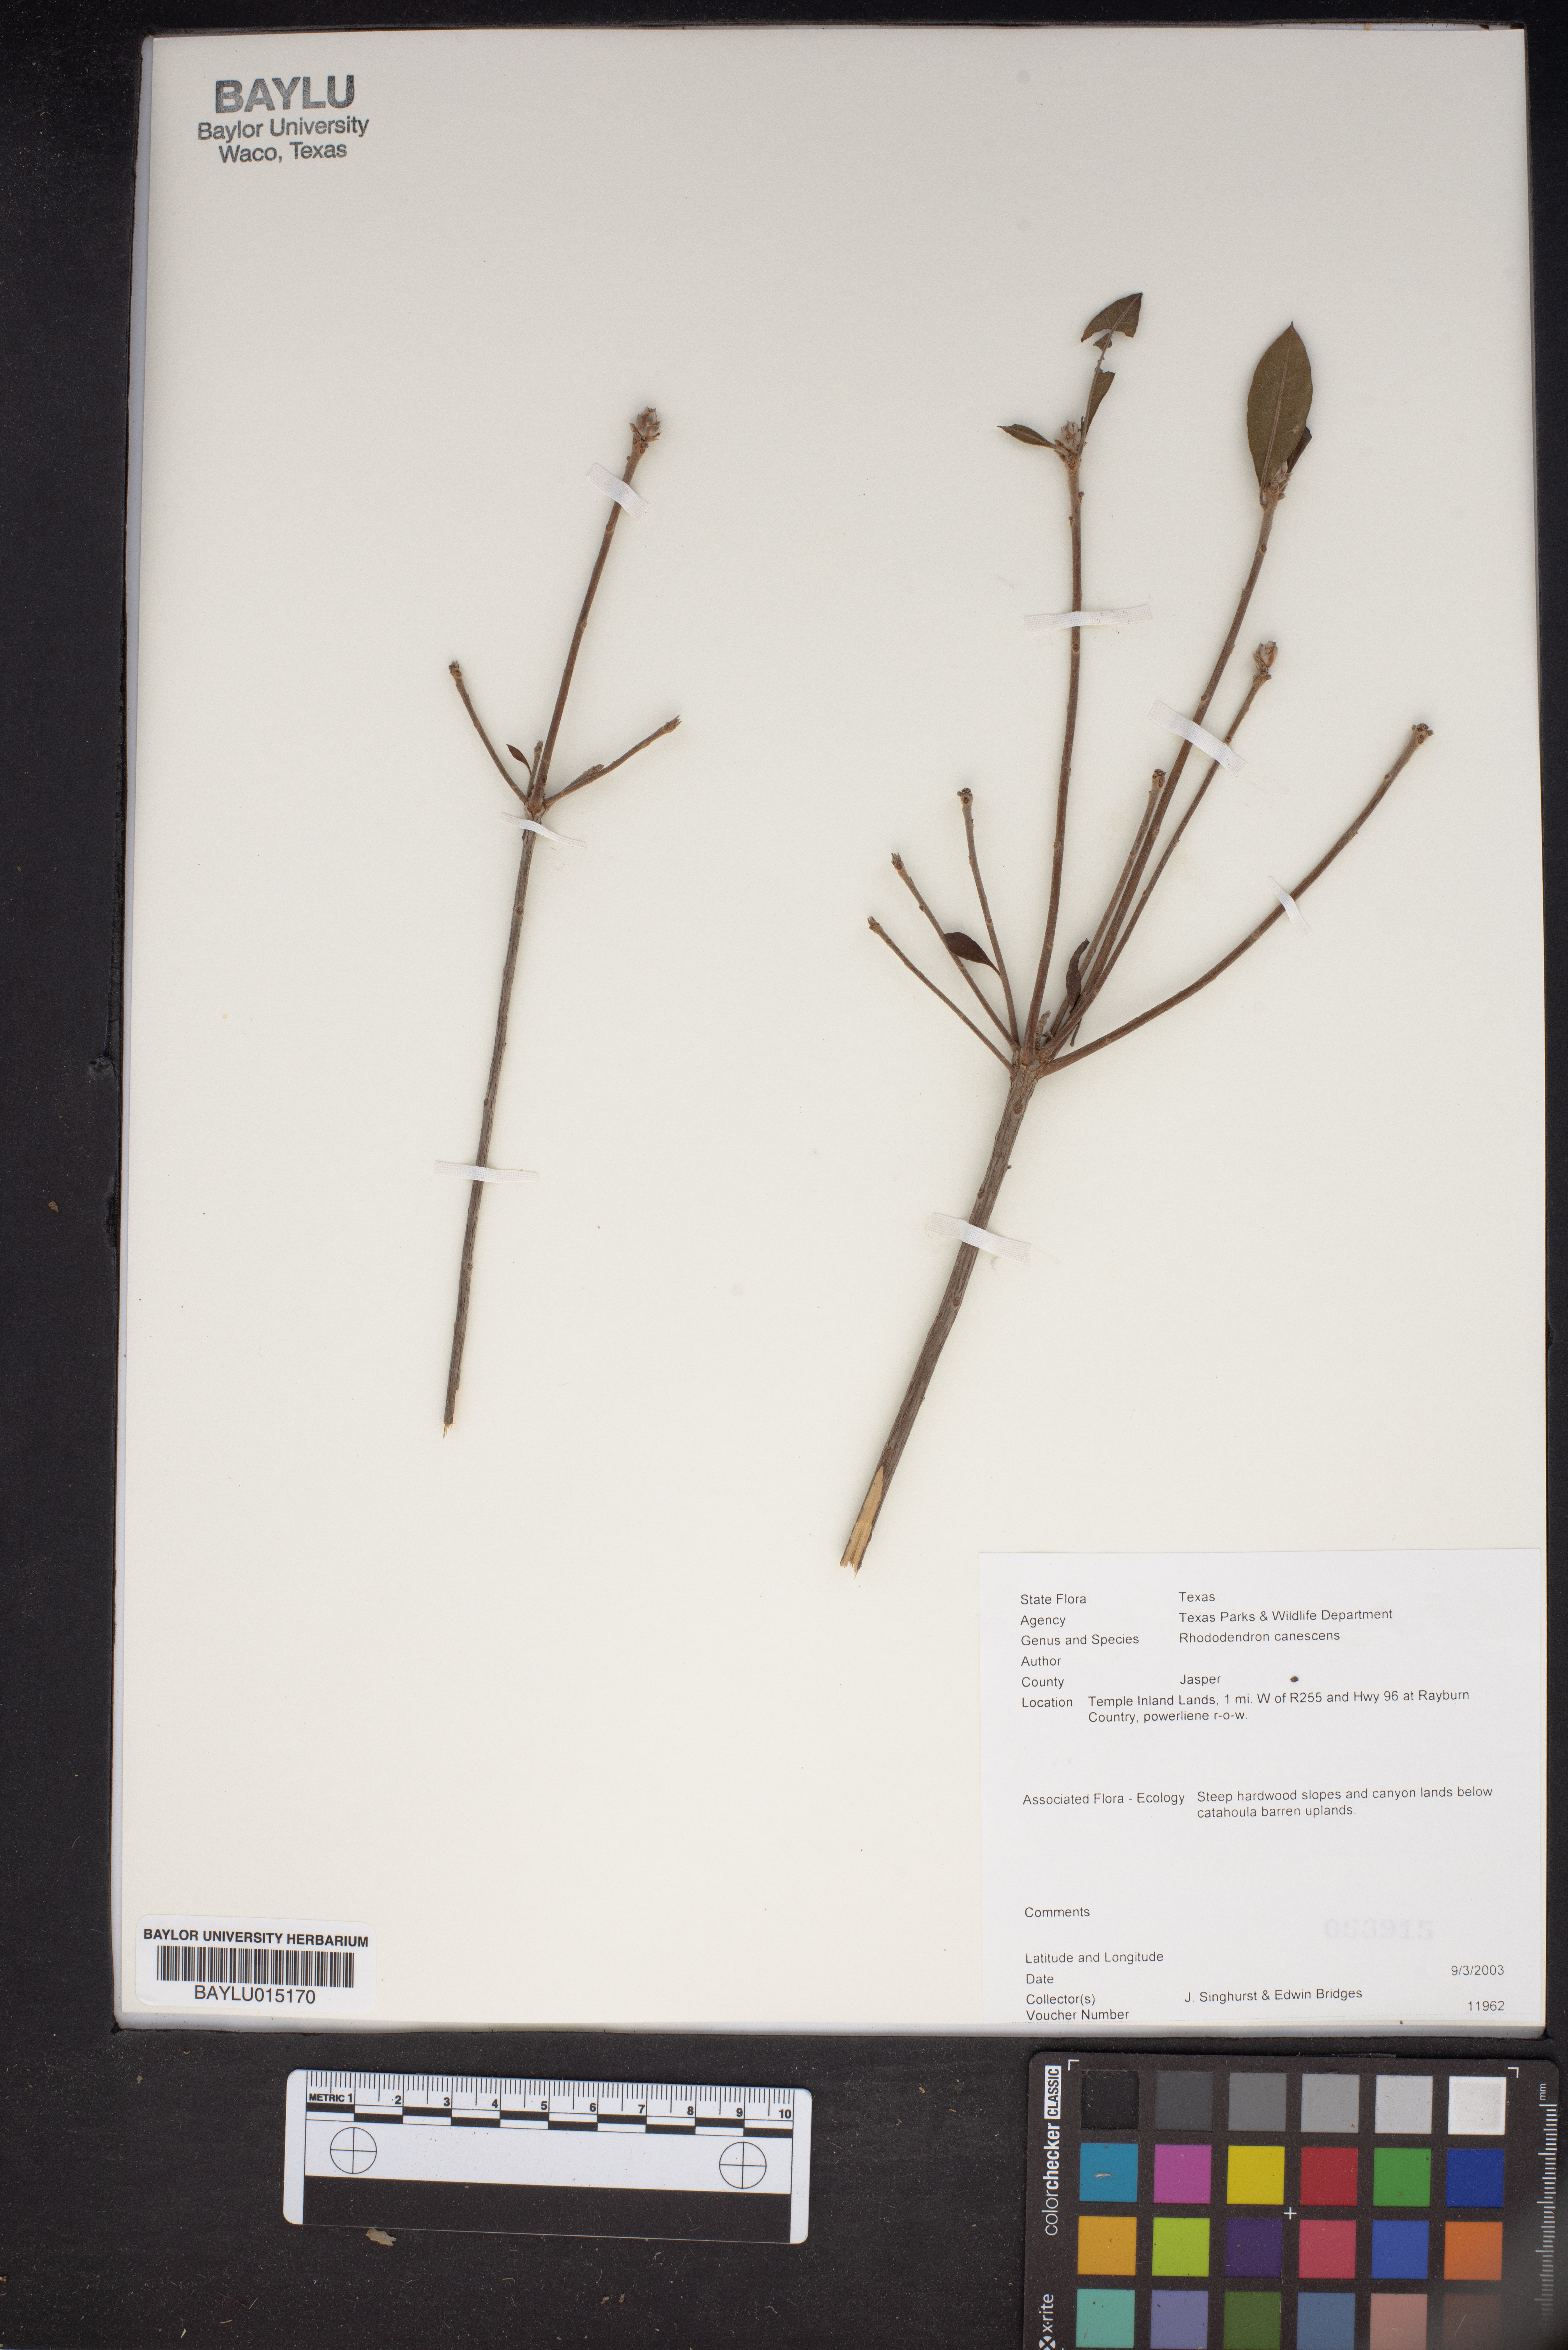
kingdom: Plantae
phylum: Tracheophyta
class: Magnoliopsida
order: Ericales
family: Ericaceae
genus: Rhododendron
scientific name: Rhododendron canescens
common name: Mountain azalea
